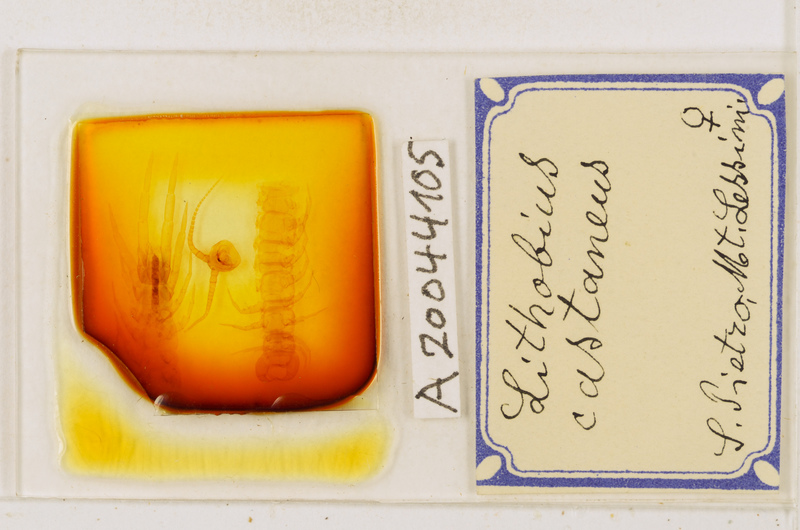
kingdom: Animalia
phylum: Arthropoda
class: Chilopoda
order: Lithobiomorpha
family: Lithobiidae
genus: Lithobius
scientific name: Lithobius castaneus
